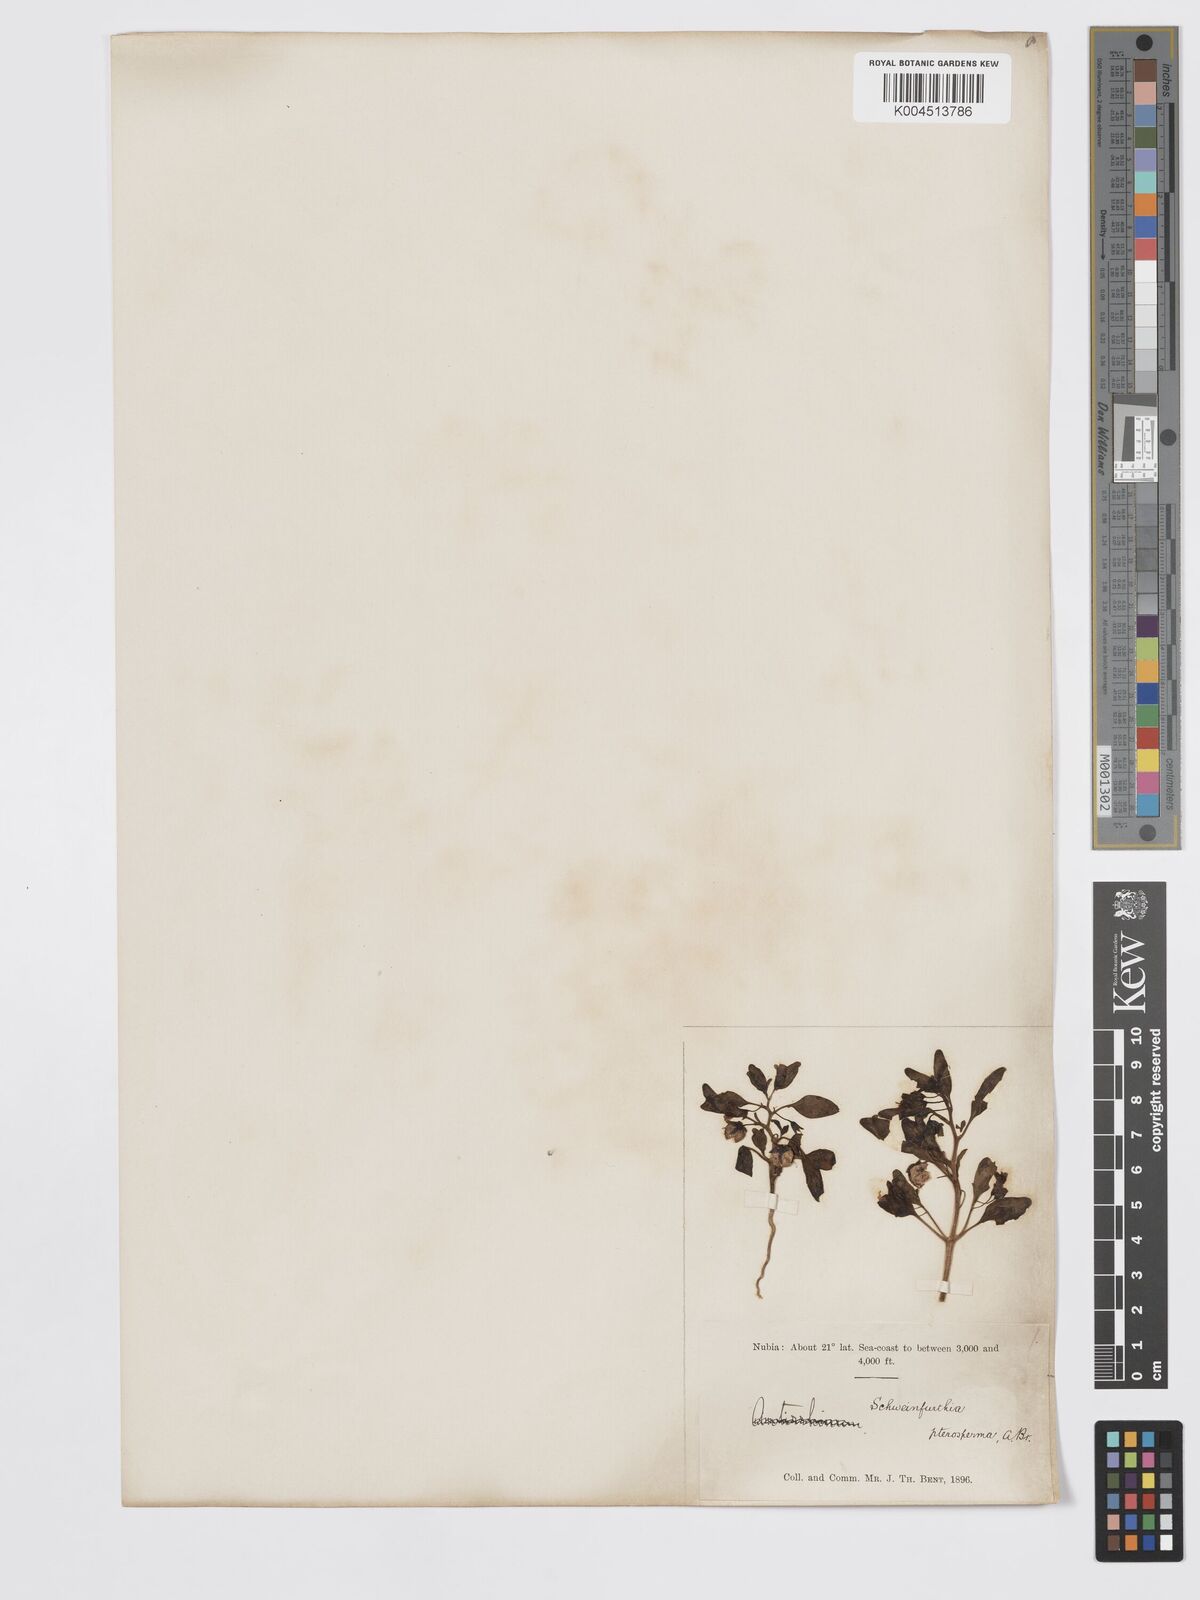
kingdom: Plantae
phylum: Tracheophyta
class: Magnoliopsida
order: Lamiales
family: Plantaginaceae
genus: Schweinfurthia
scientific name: Schweinfurthia pterosperma
